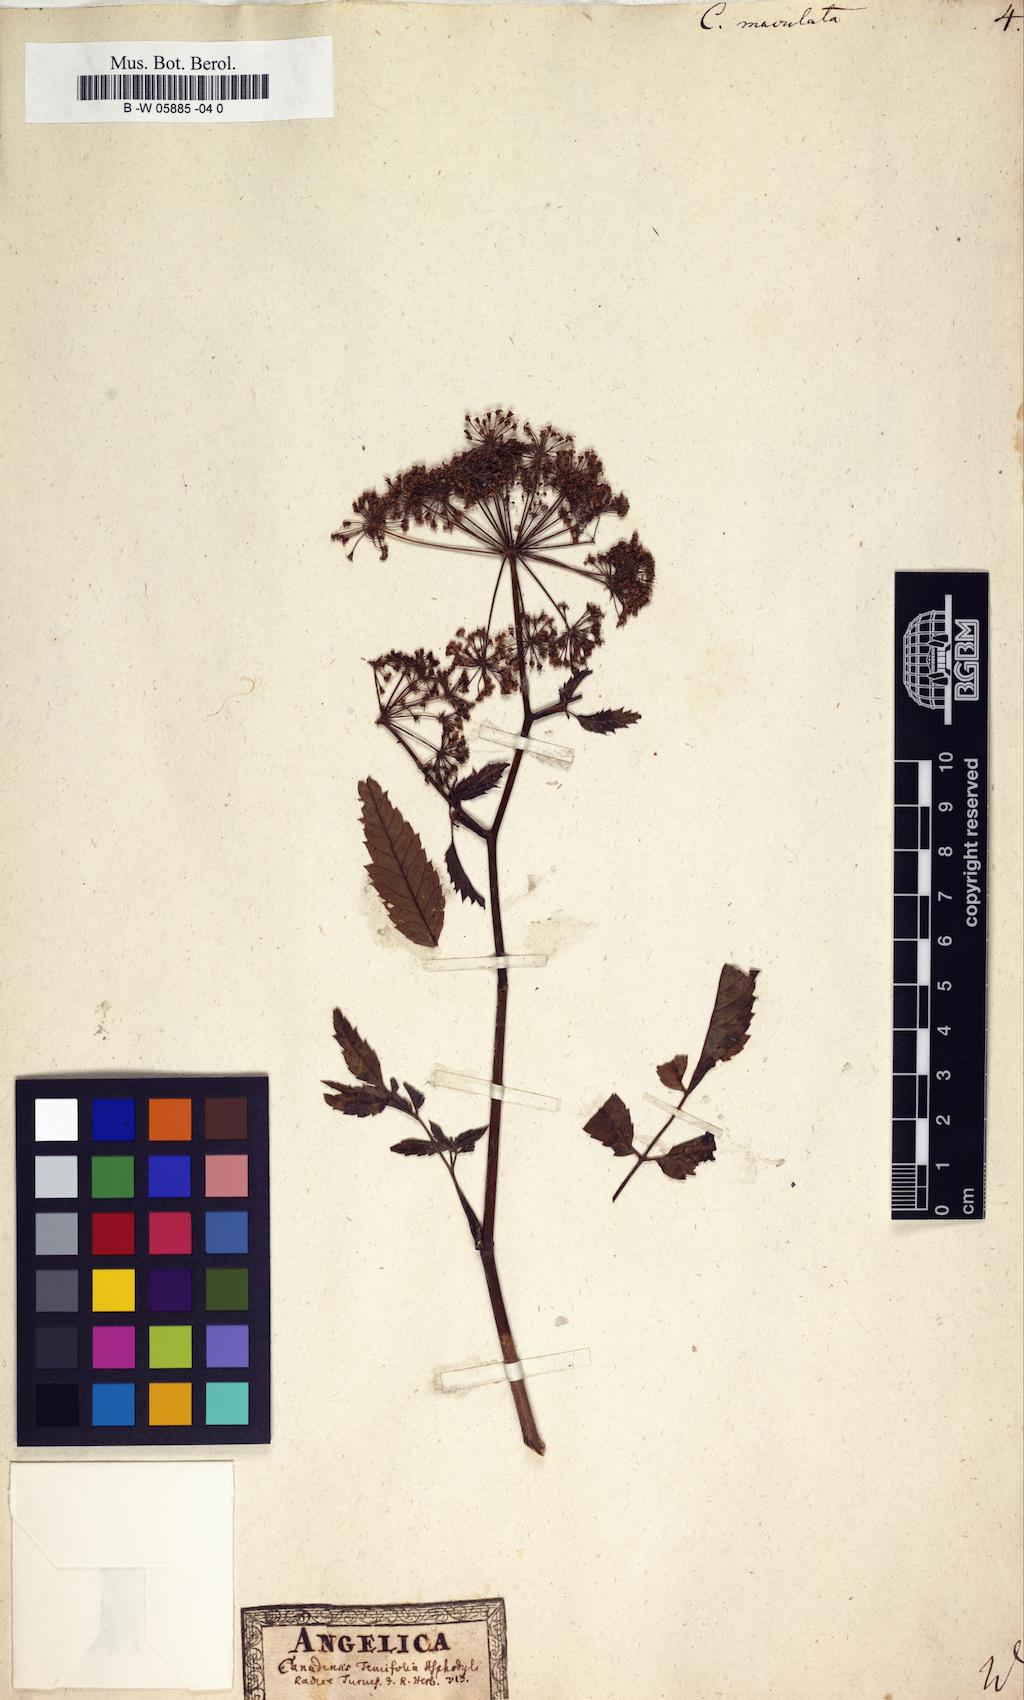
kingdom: Plantae
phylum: Tracheophyta
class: Magnoliopsida
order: Apiales
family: Apiaceae
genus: Cicuta
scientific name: Cicuta maculata
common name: Spotted cowbane
